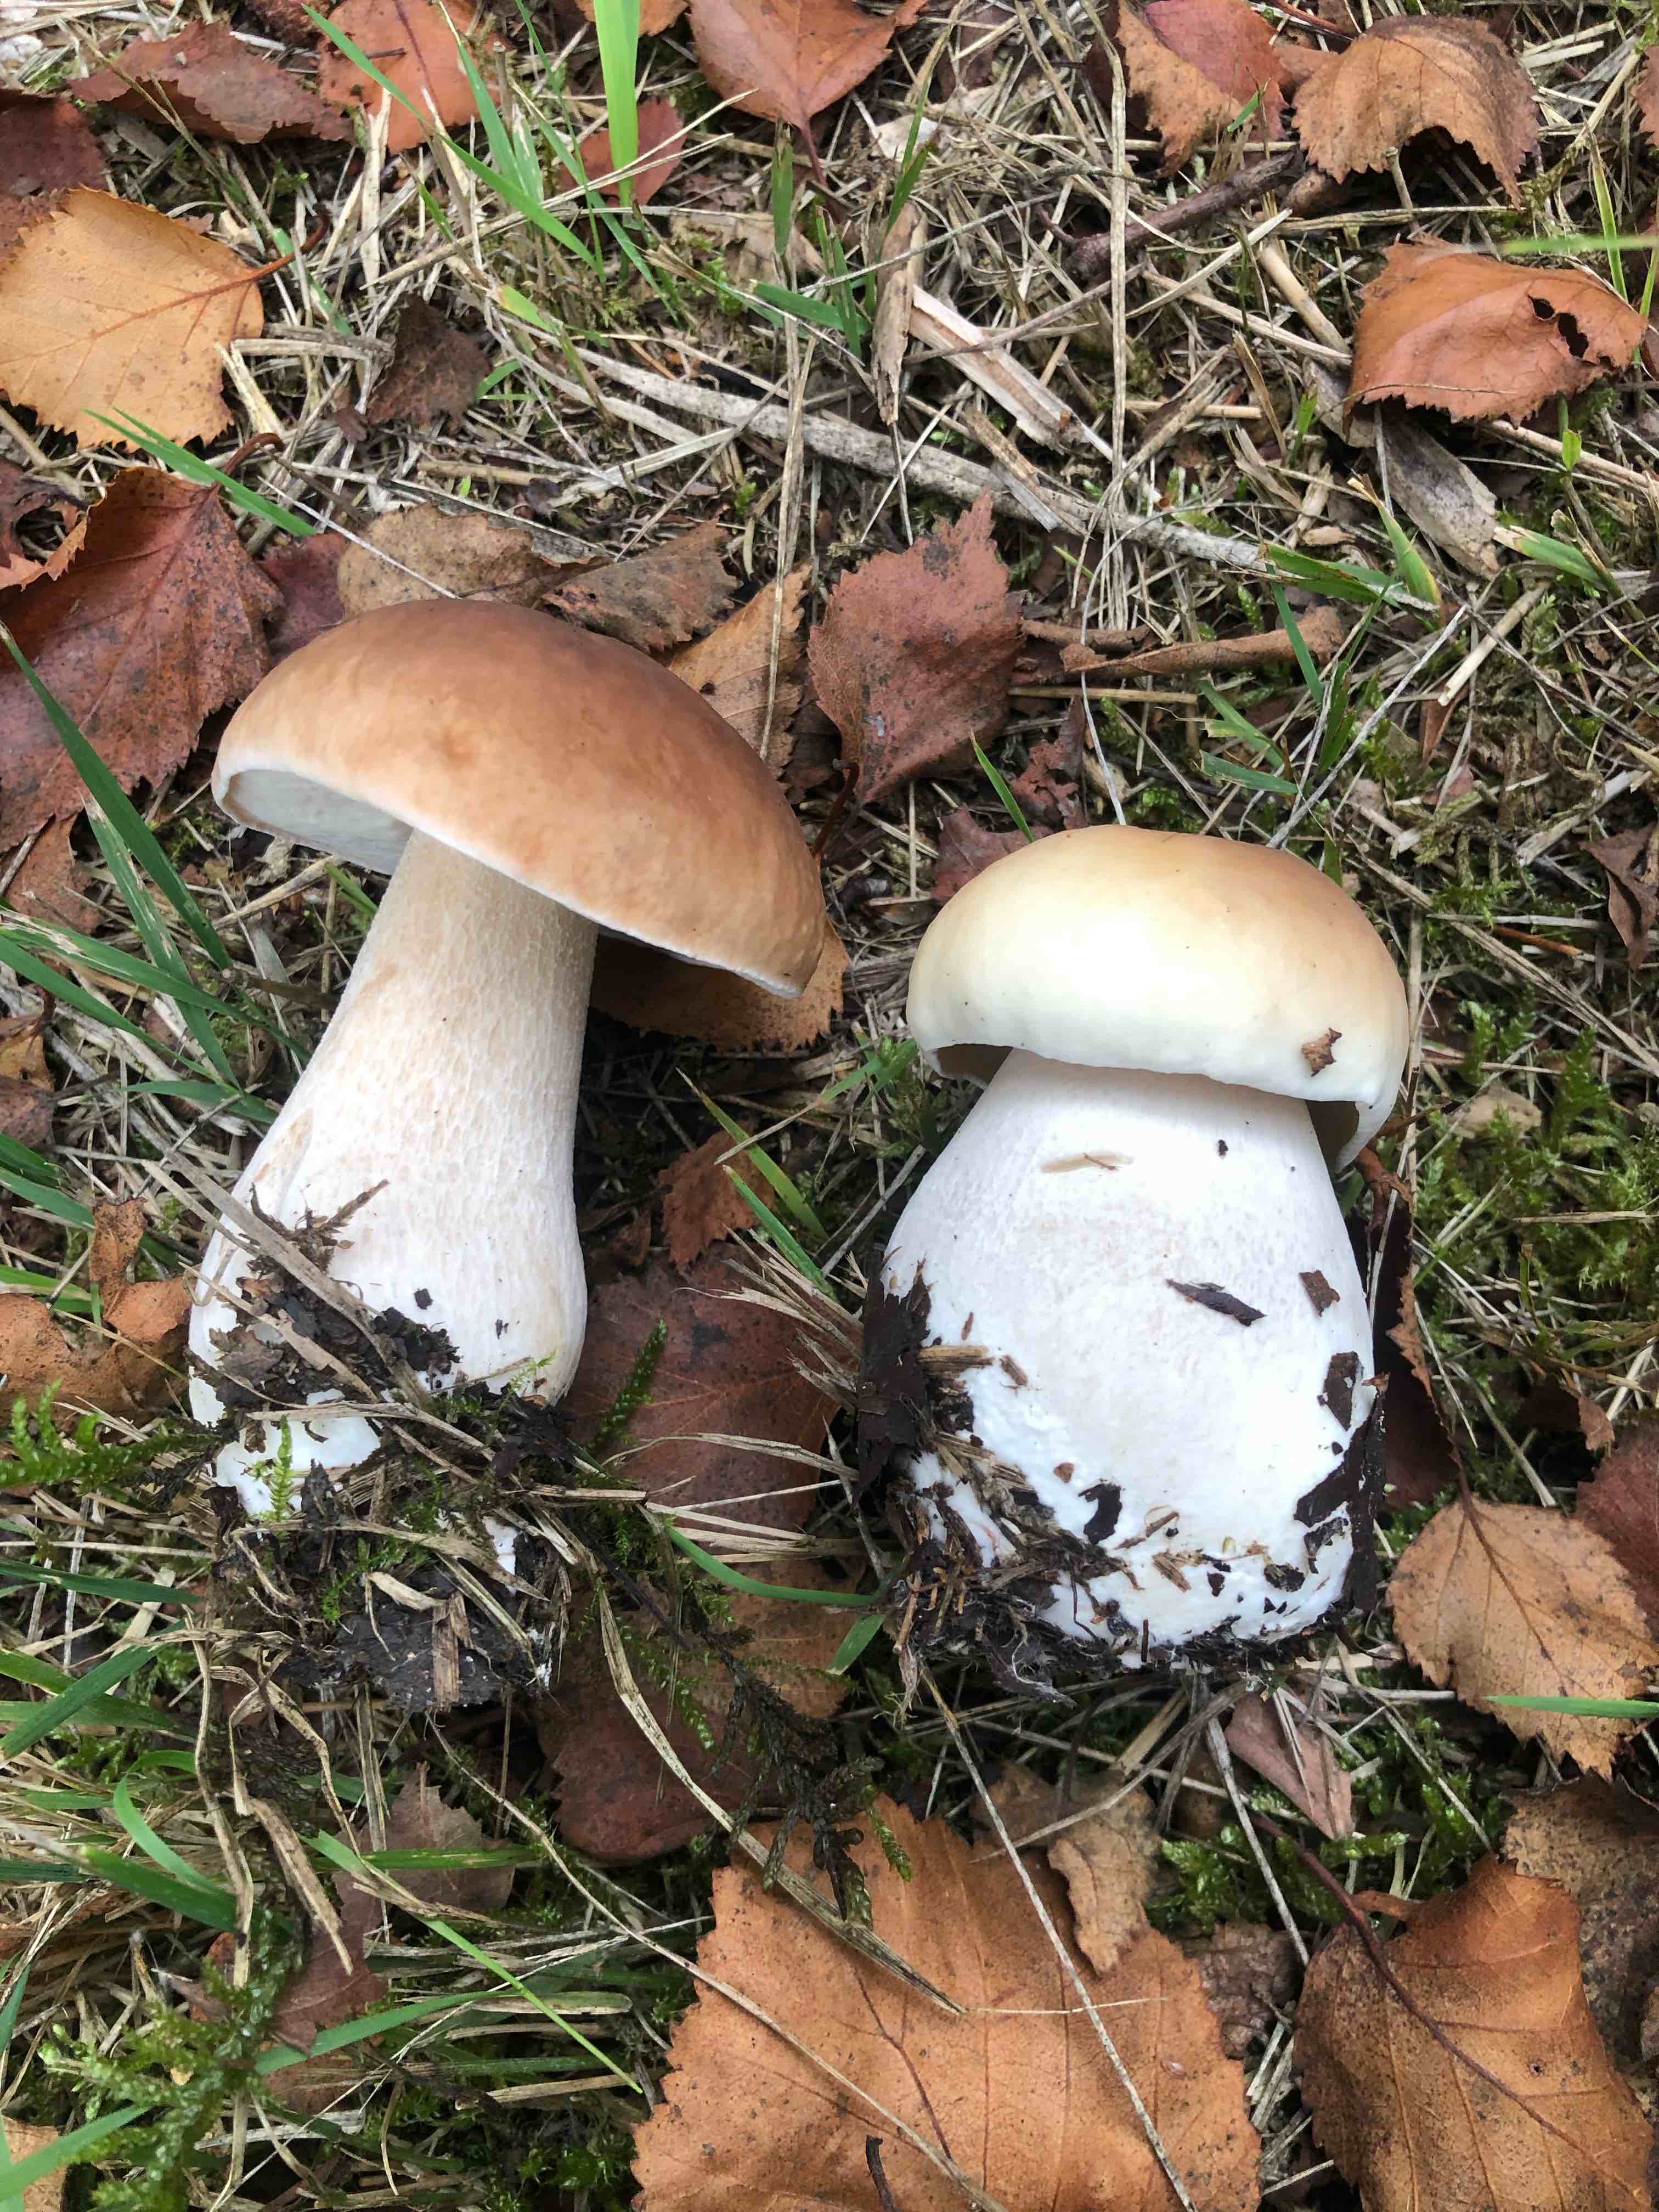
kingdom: Fungi
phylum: Basidiomycota
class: Agaricomycetes
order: Boletales
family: Boletaceae
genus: Boletus
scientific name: Boletus edulis
